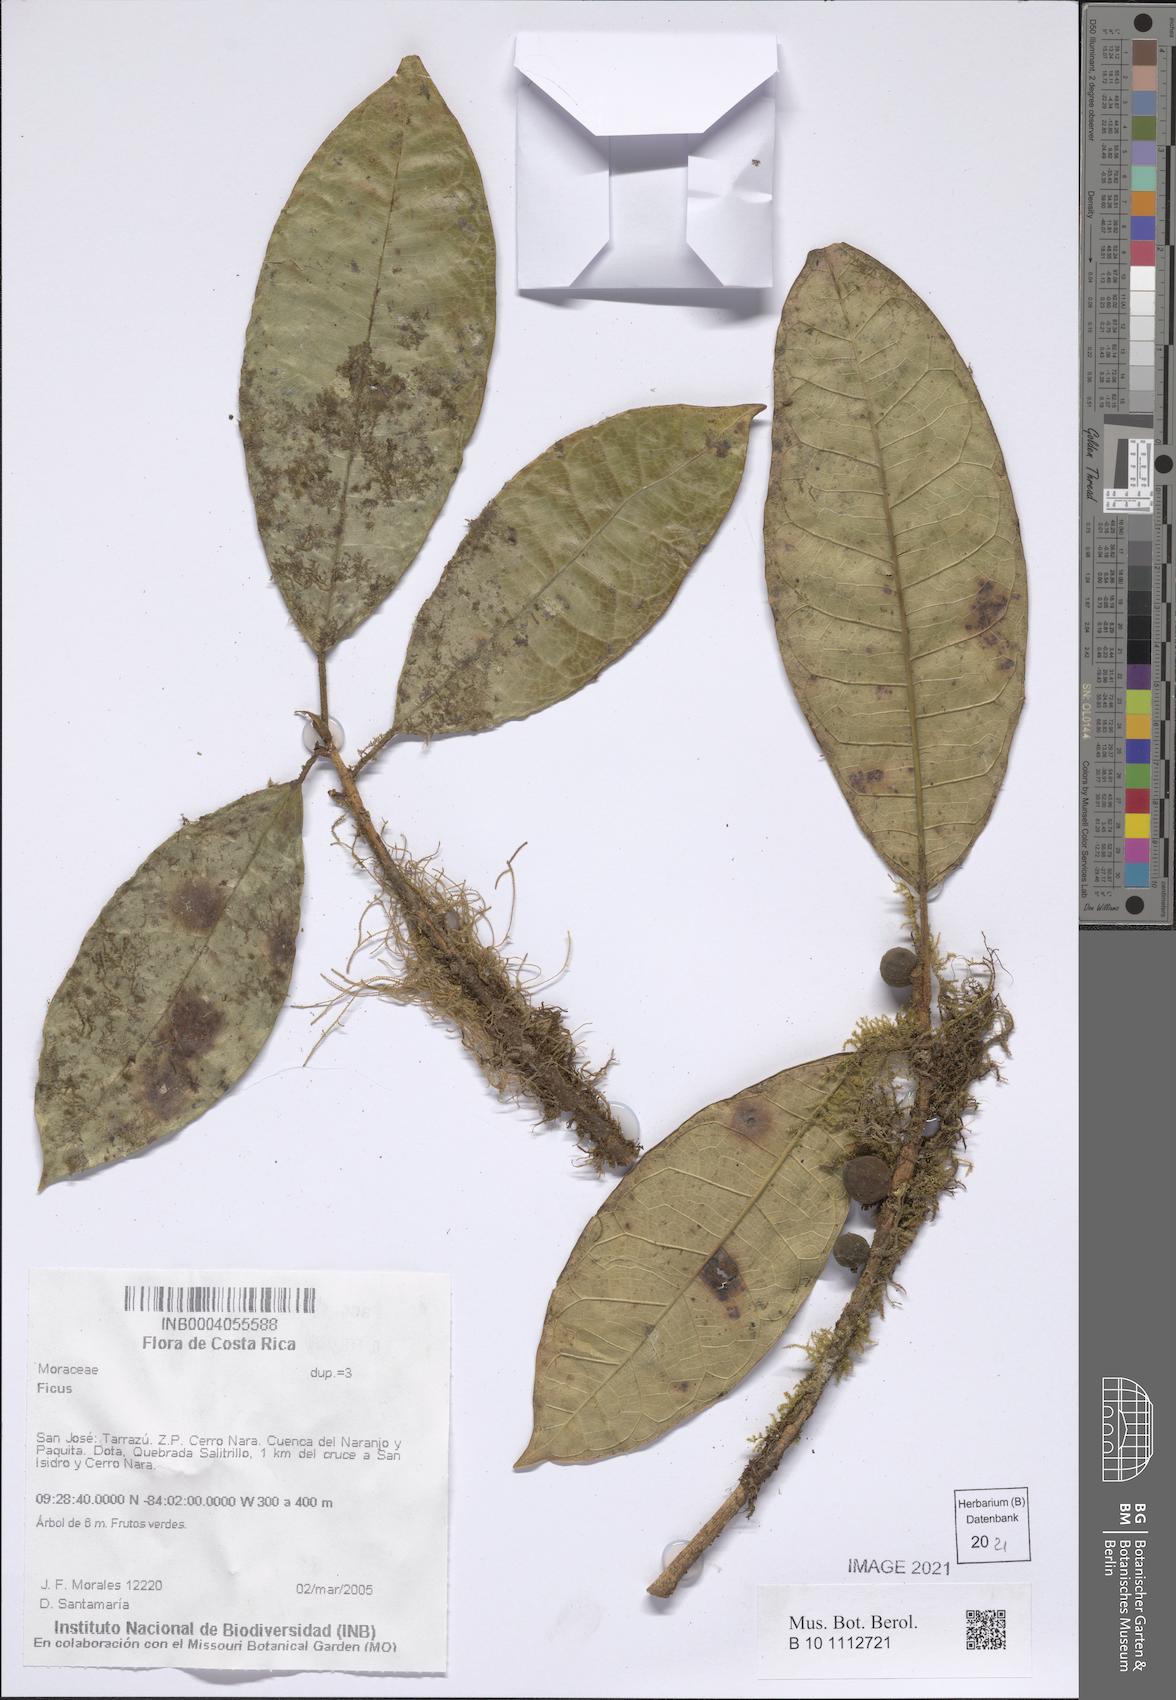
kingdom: Plantae
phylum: Tracheophyta
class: Magnoliopsida
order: Rosales
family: Moraceae
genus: Ficus
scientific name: Ficus
